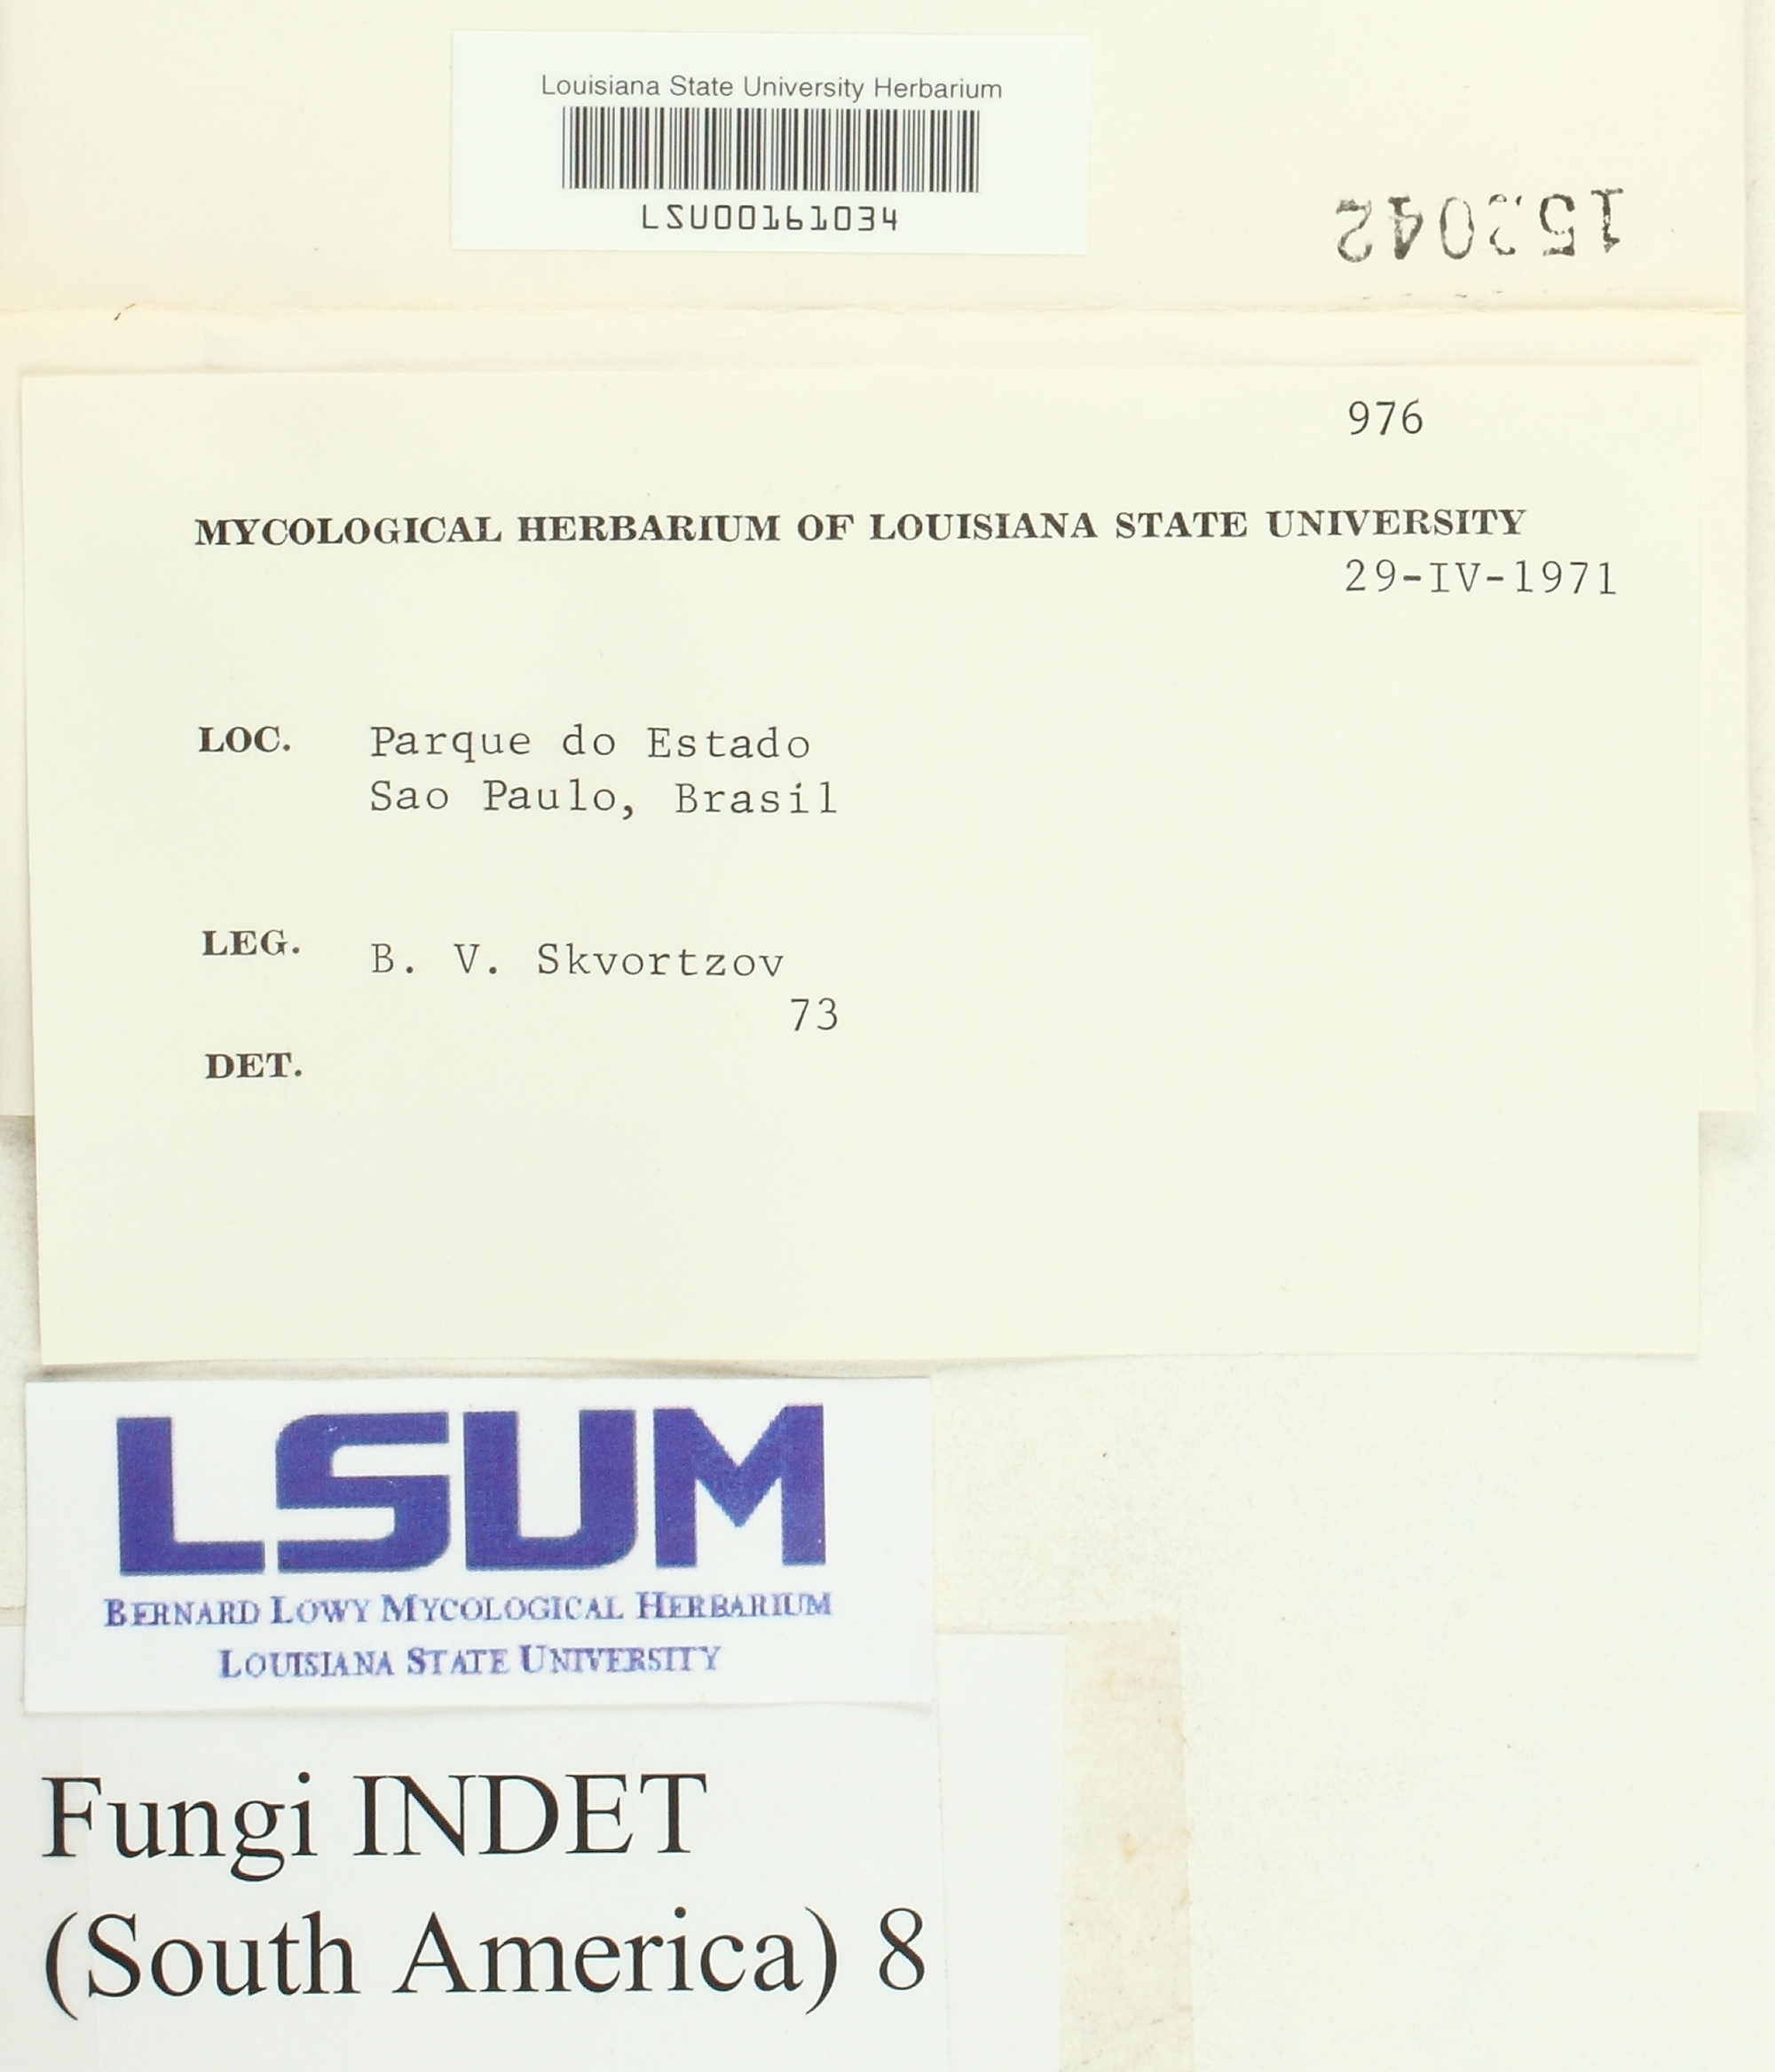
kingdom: Fungi
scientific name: Fungi
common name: Fungi
